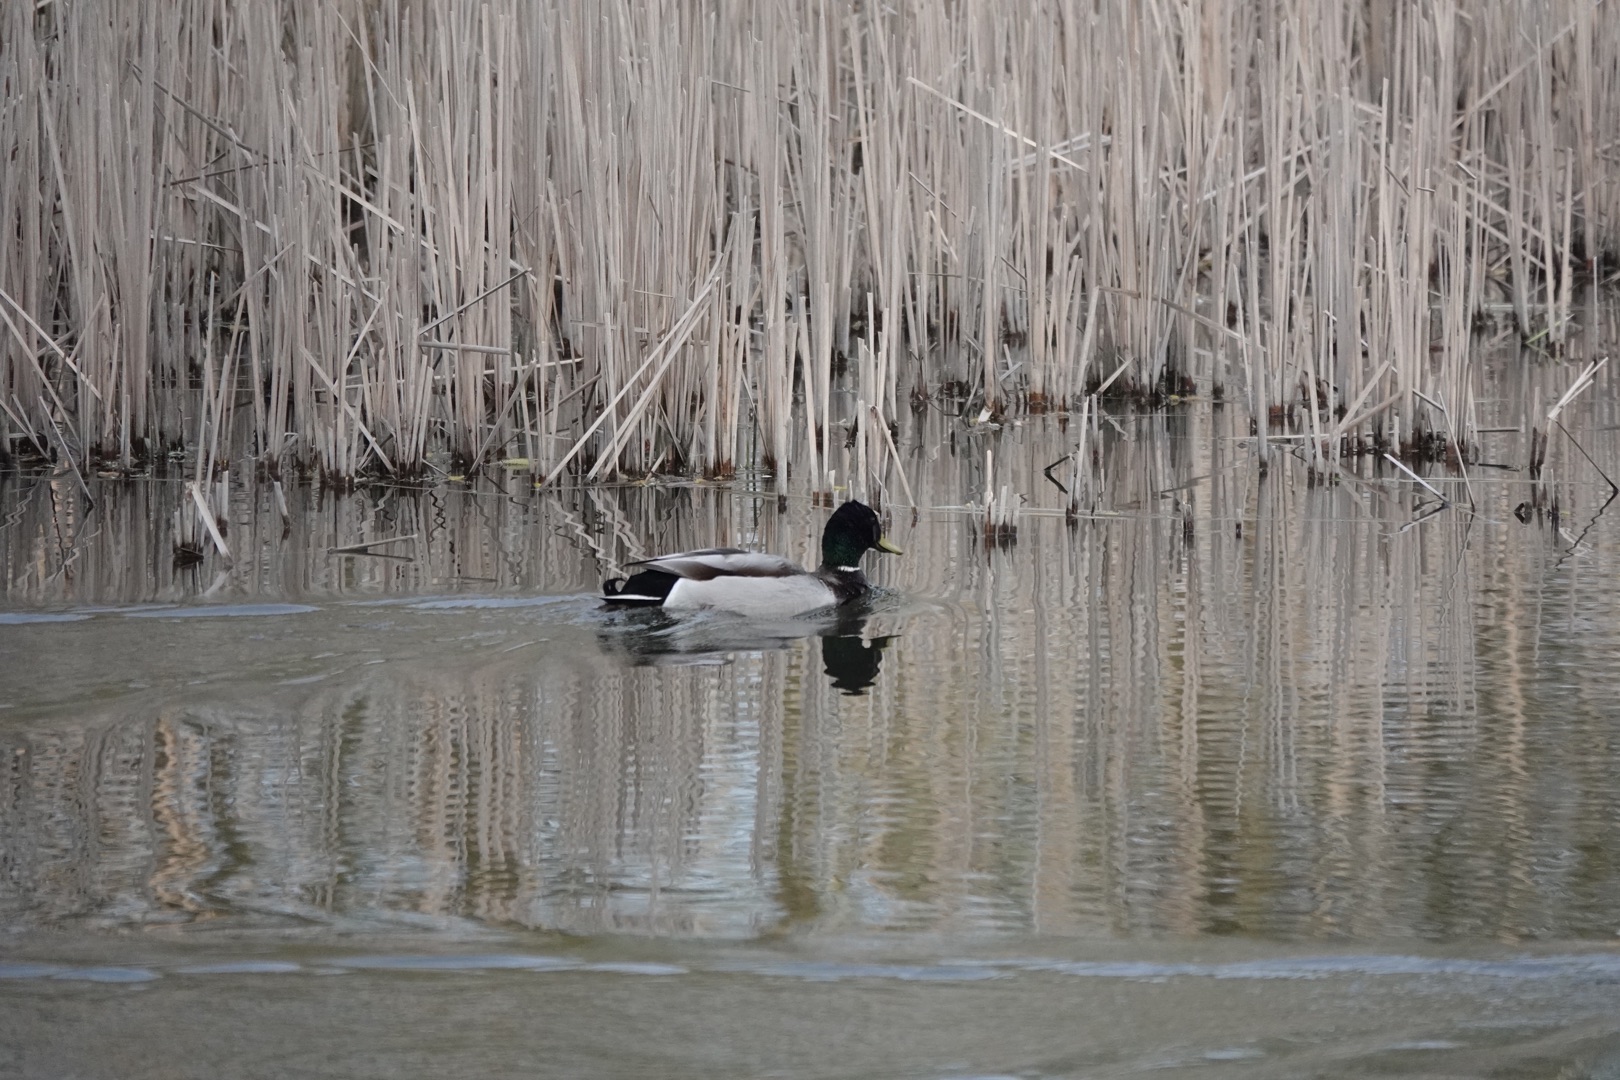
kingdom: Animalia
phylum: Chordata
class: Aves
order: Anseriformes
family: Anatidae
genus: Anas
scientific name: Anas platyrhynchos
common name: Gråand
